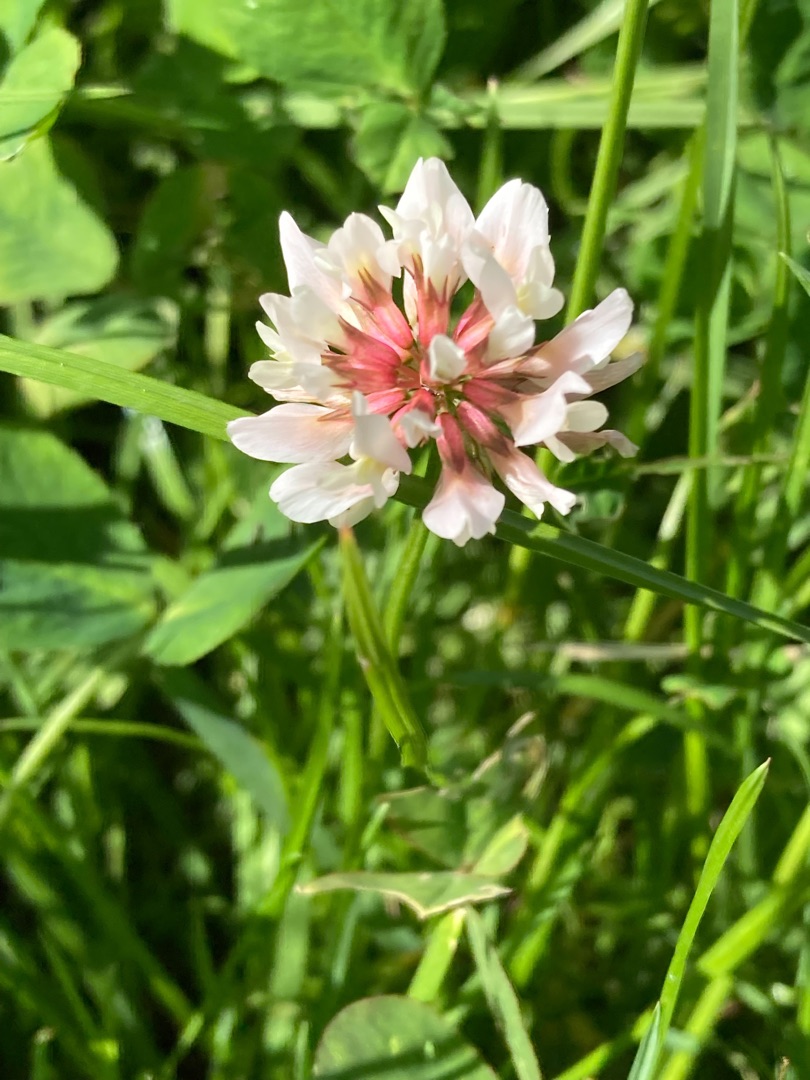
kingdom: Plantae
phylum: Tracheophyta
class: Magnoliopsida
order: Fabales
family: Fabaceae
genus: Trifolium
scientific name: Trifolium repens
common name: Hvid-kløver
